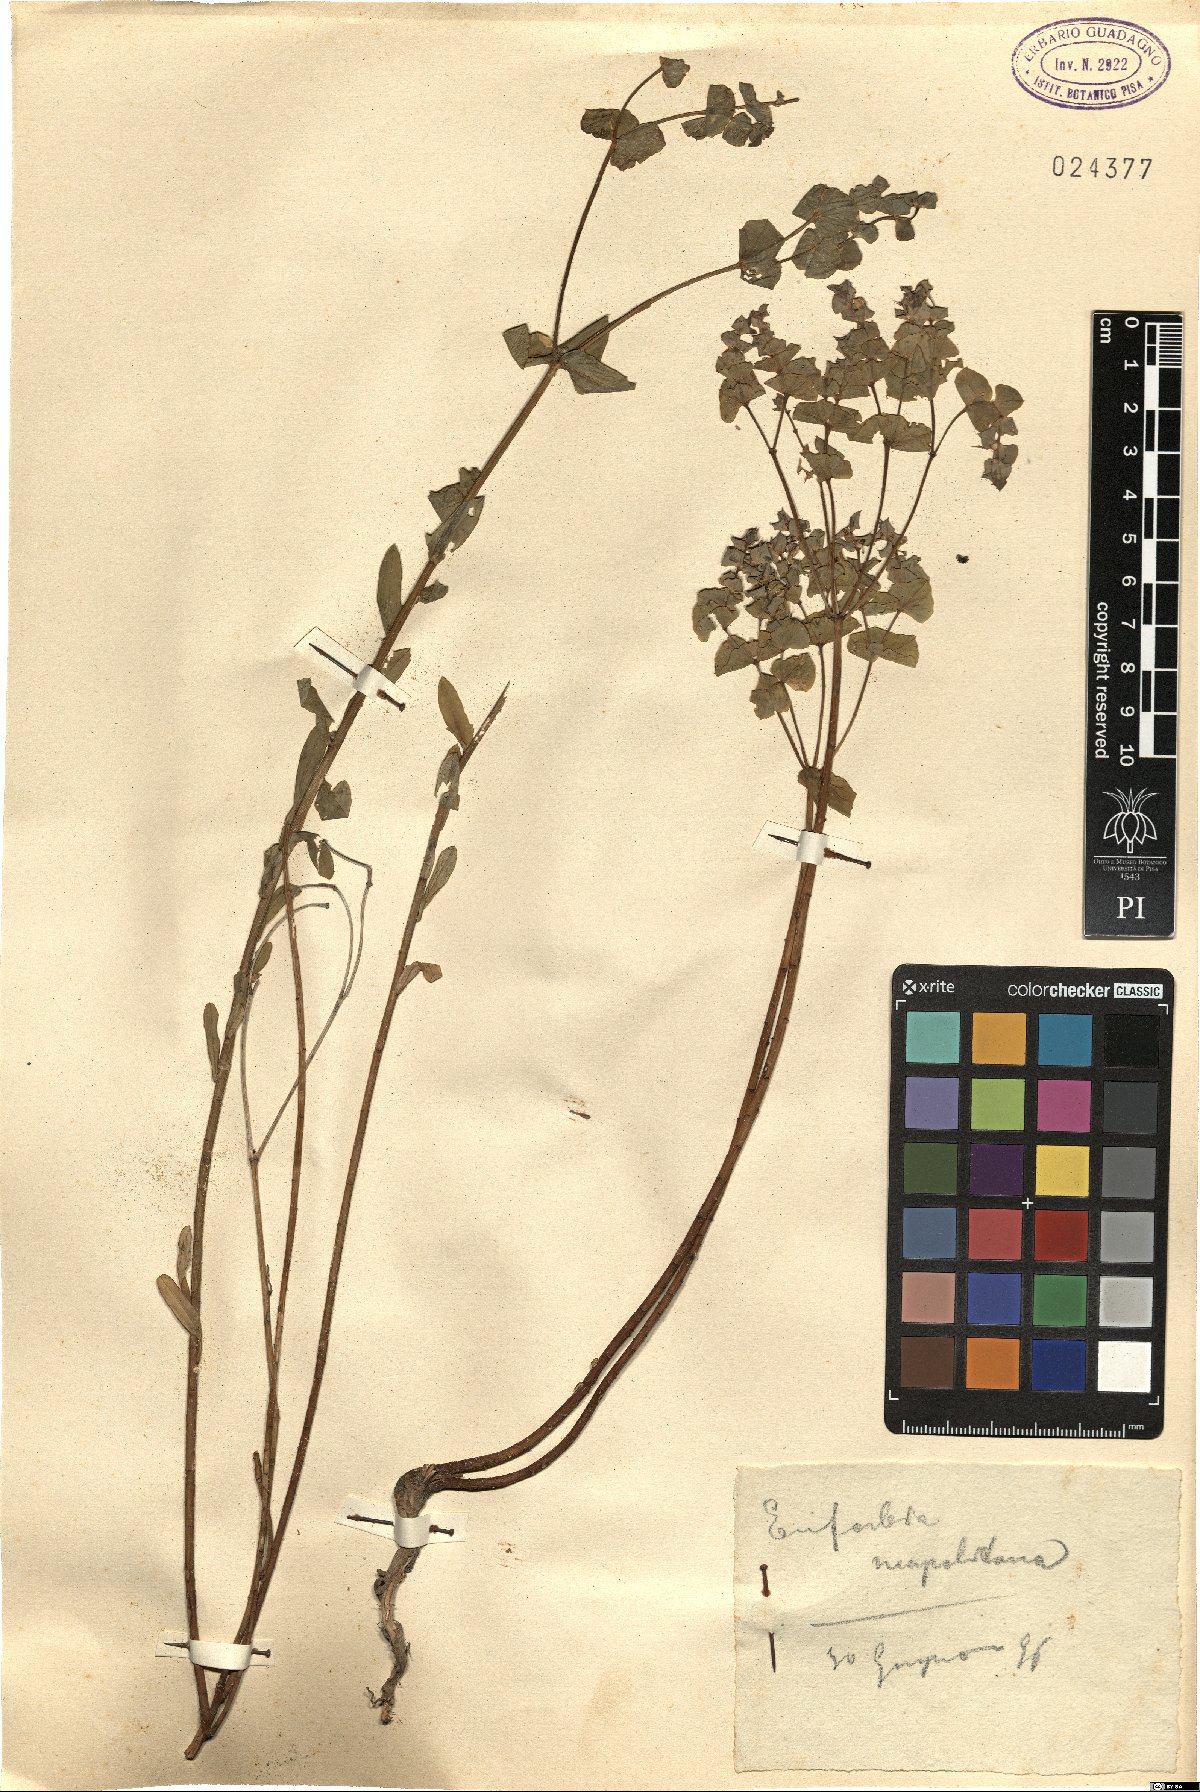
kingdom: Plantae
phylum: Tracheophyta
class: Magnoliopsida
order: Malpighiales
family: Euphorbiaceae
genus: Euphorbia
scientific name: Euphorbia terracina
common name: Geraldton carnation weed
